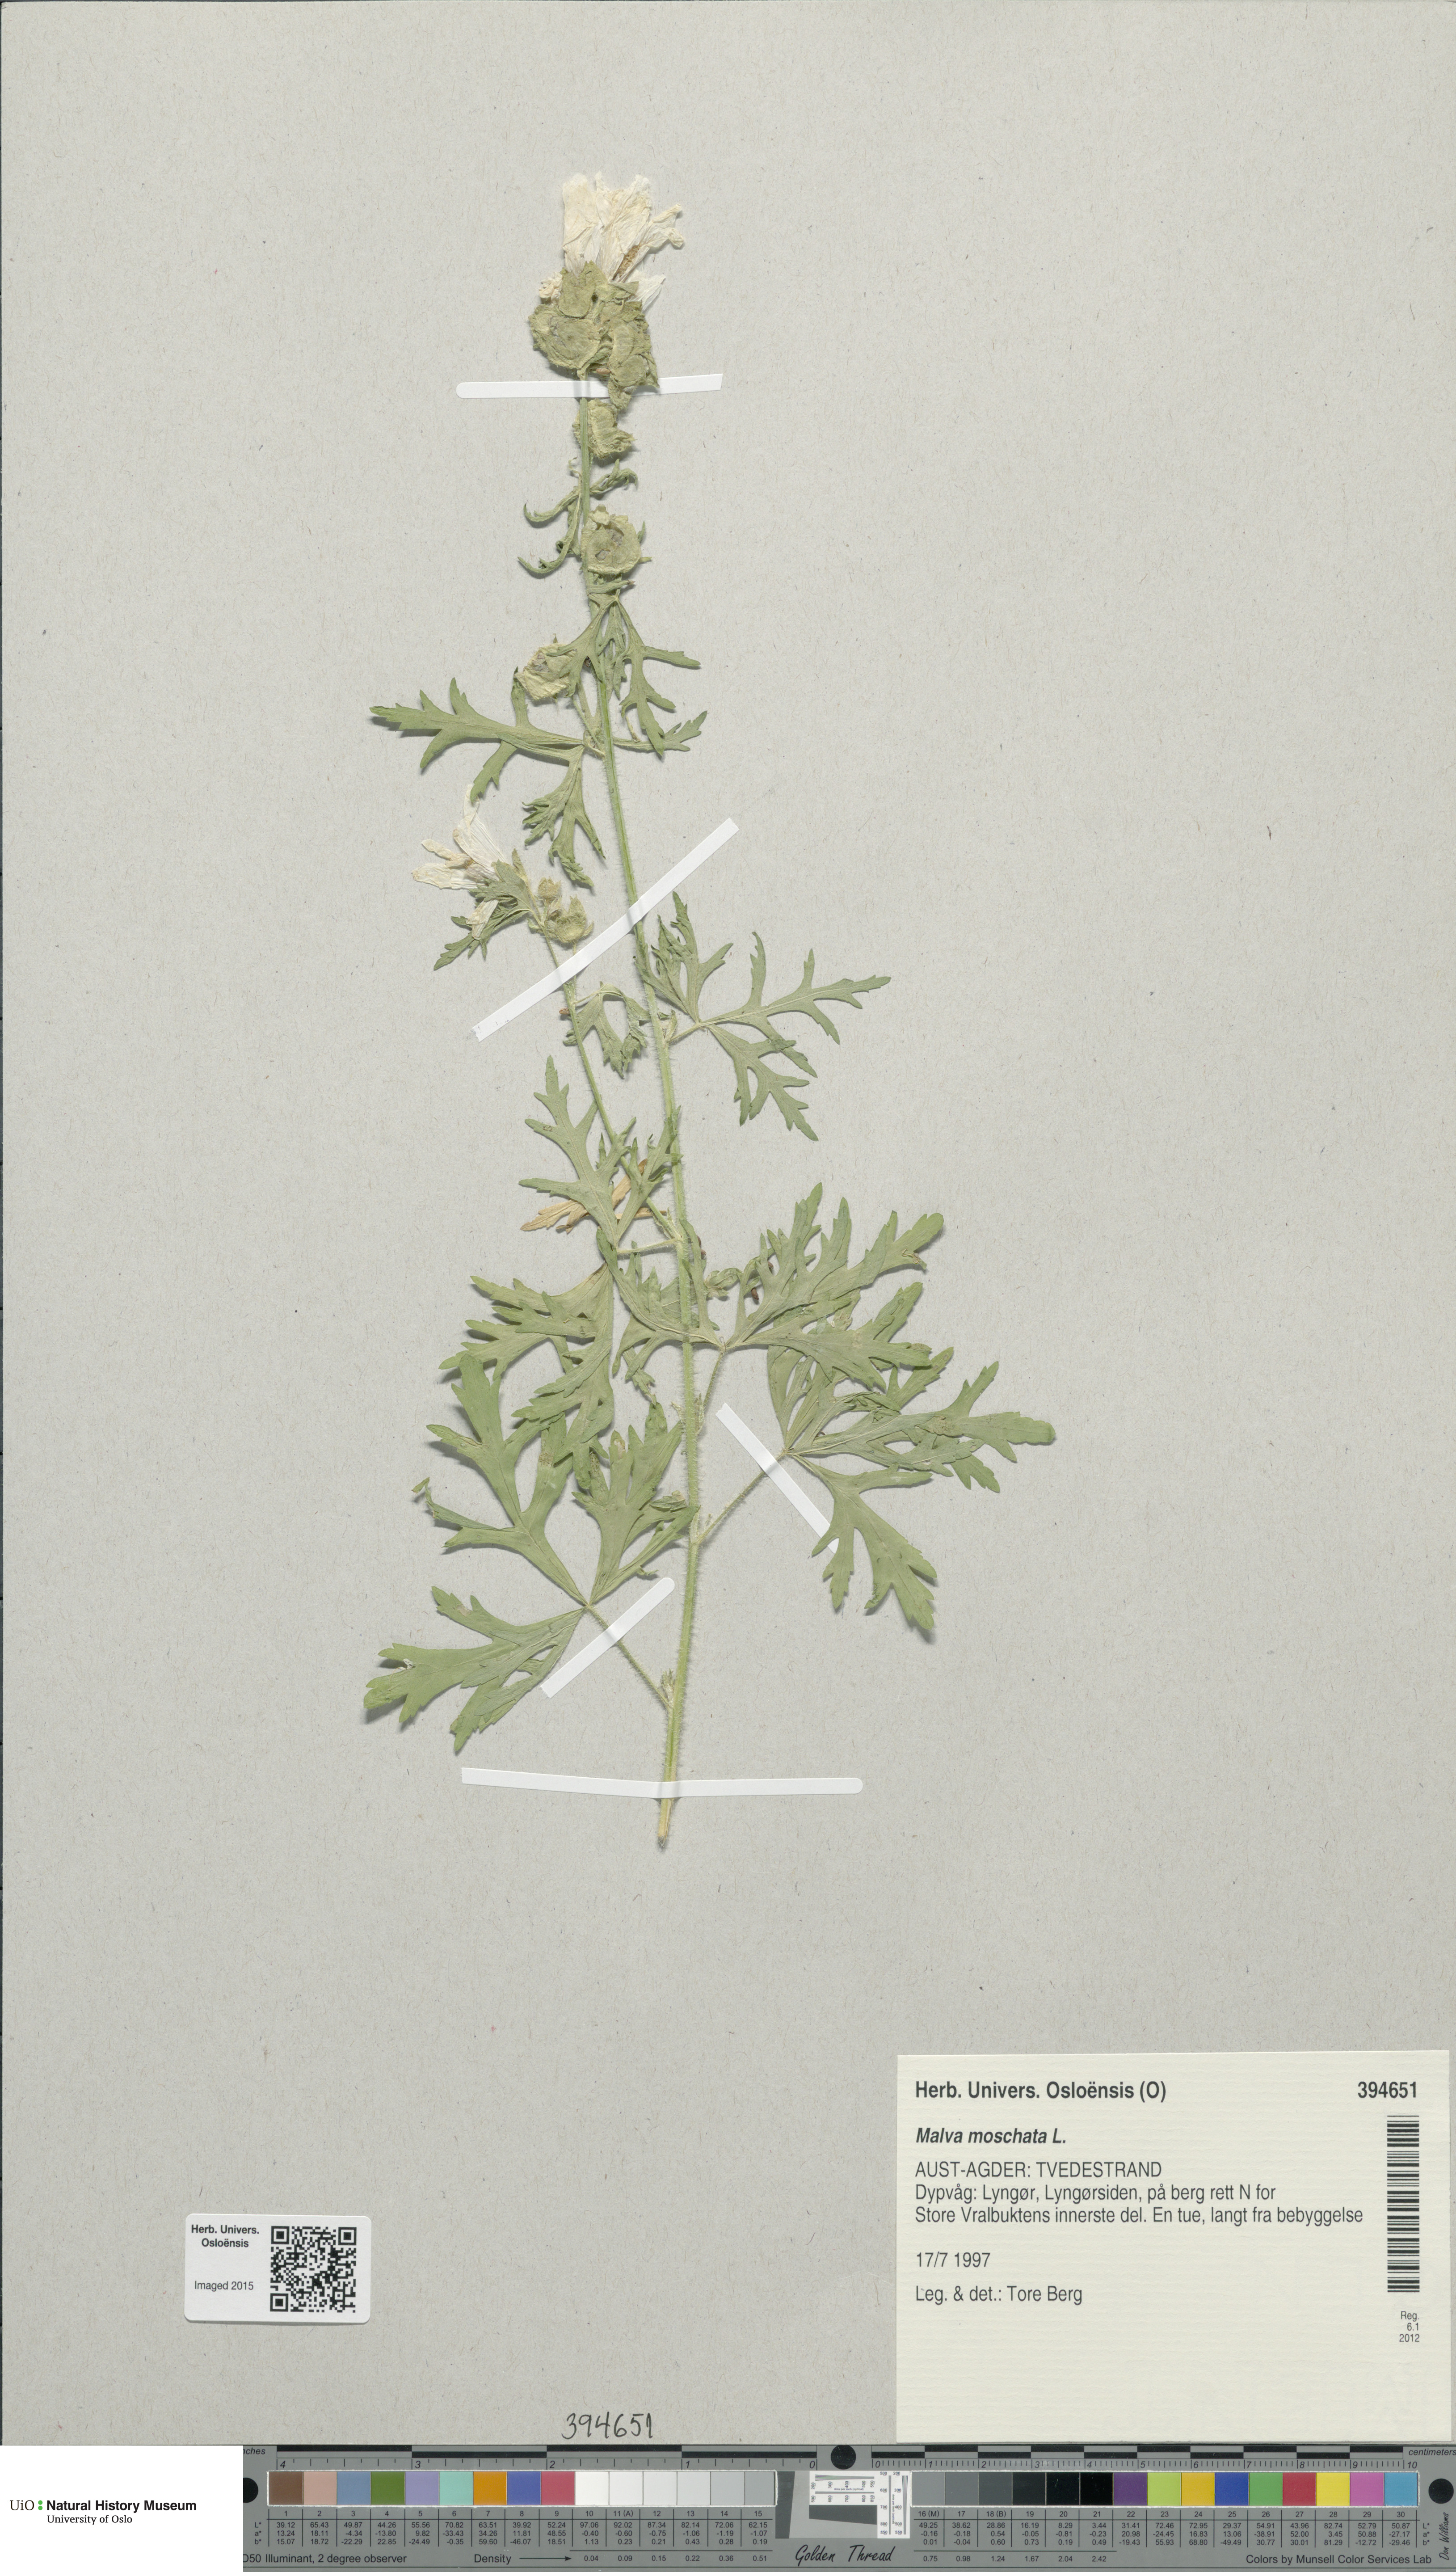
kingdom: Plantae
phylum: Tracheophyta
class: Magnoliopsida
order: Malvales
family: Malvaceae
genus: Malva
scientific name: Malva moschata
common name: Musk mallow
